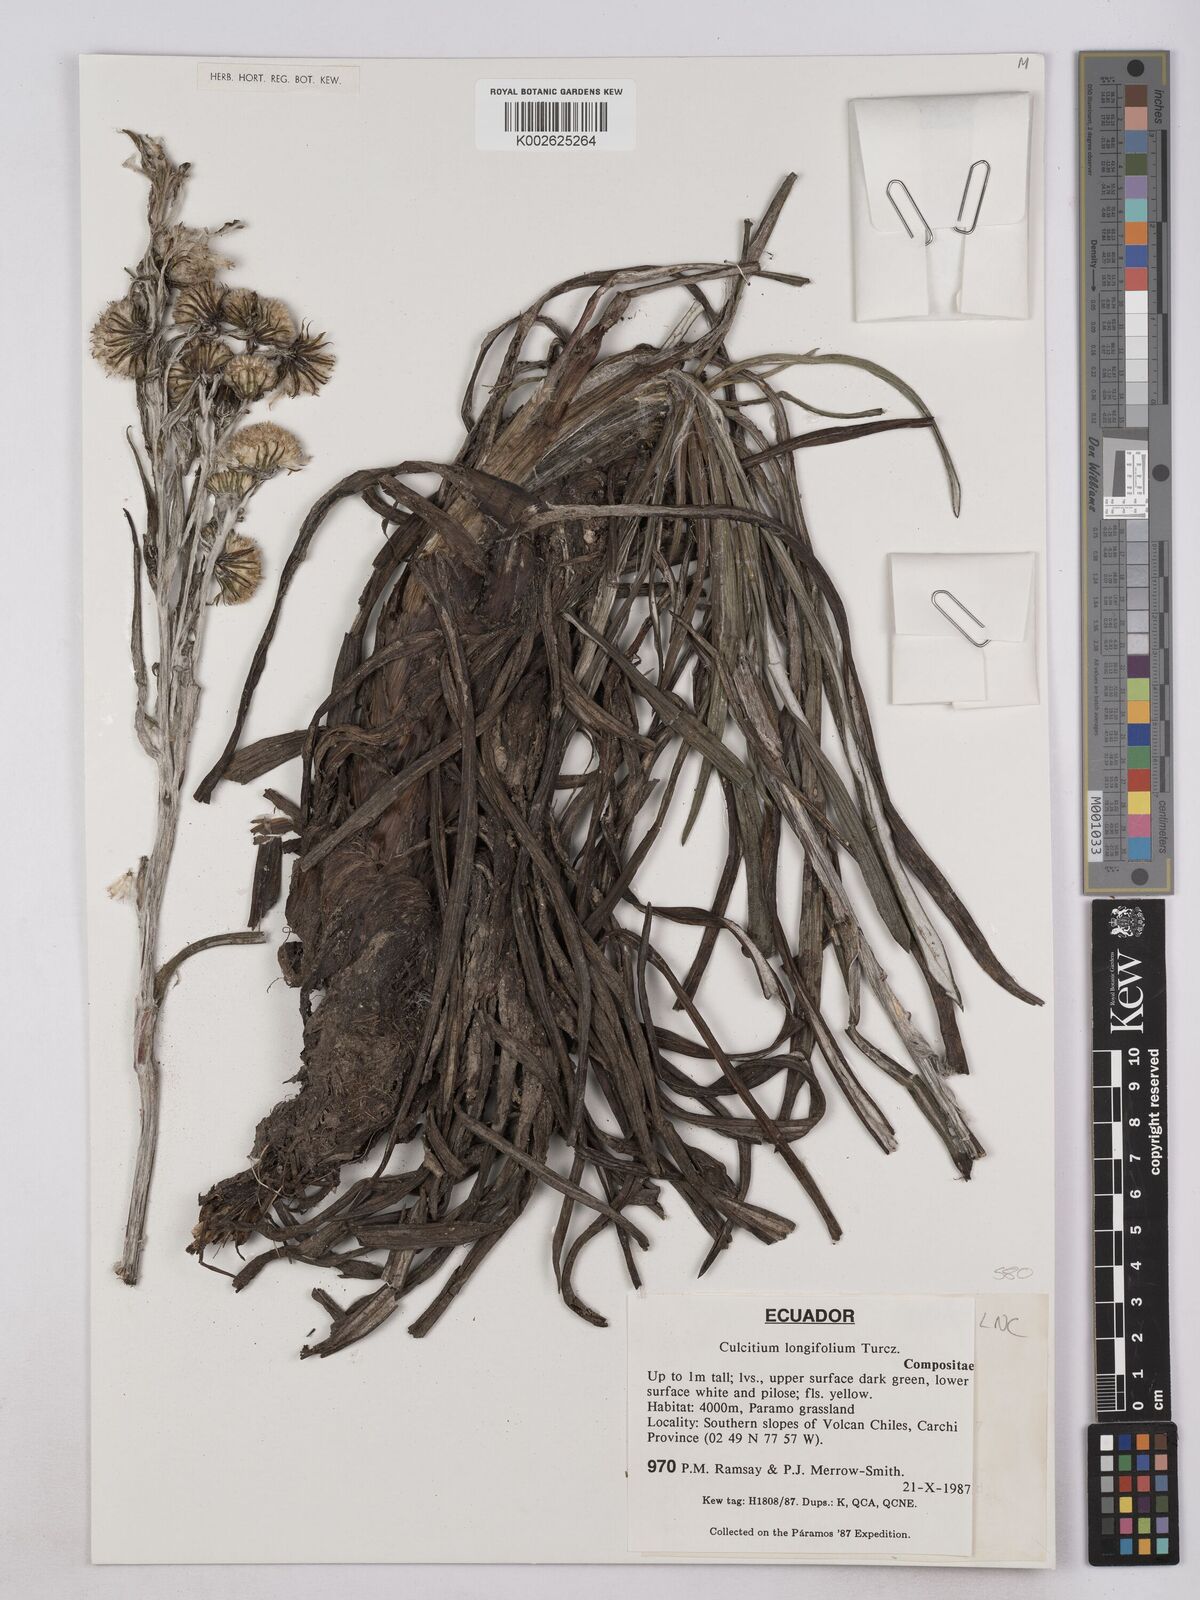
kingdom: Plantae
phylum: Tracheophyta
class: Magnoliopsida
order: Asterales
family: Asteraceae
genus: Senecio
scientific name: Senecio comosus
